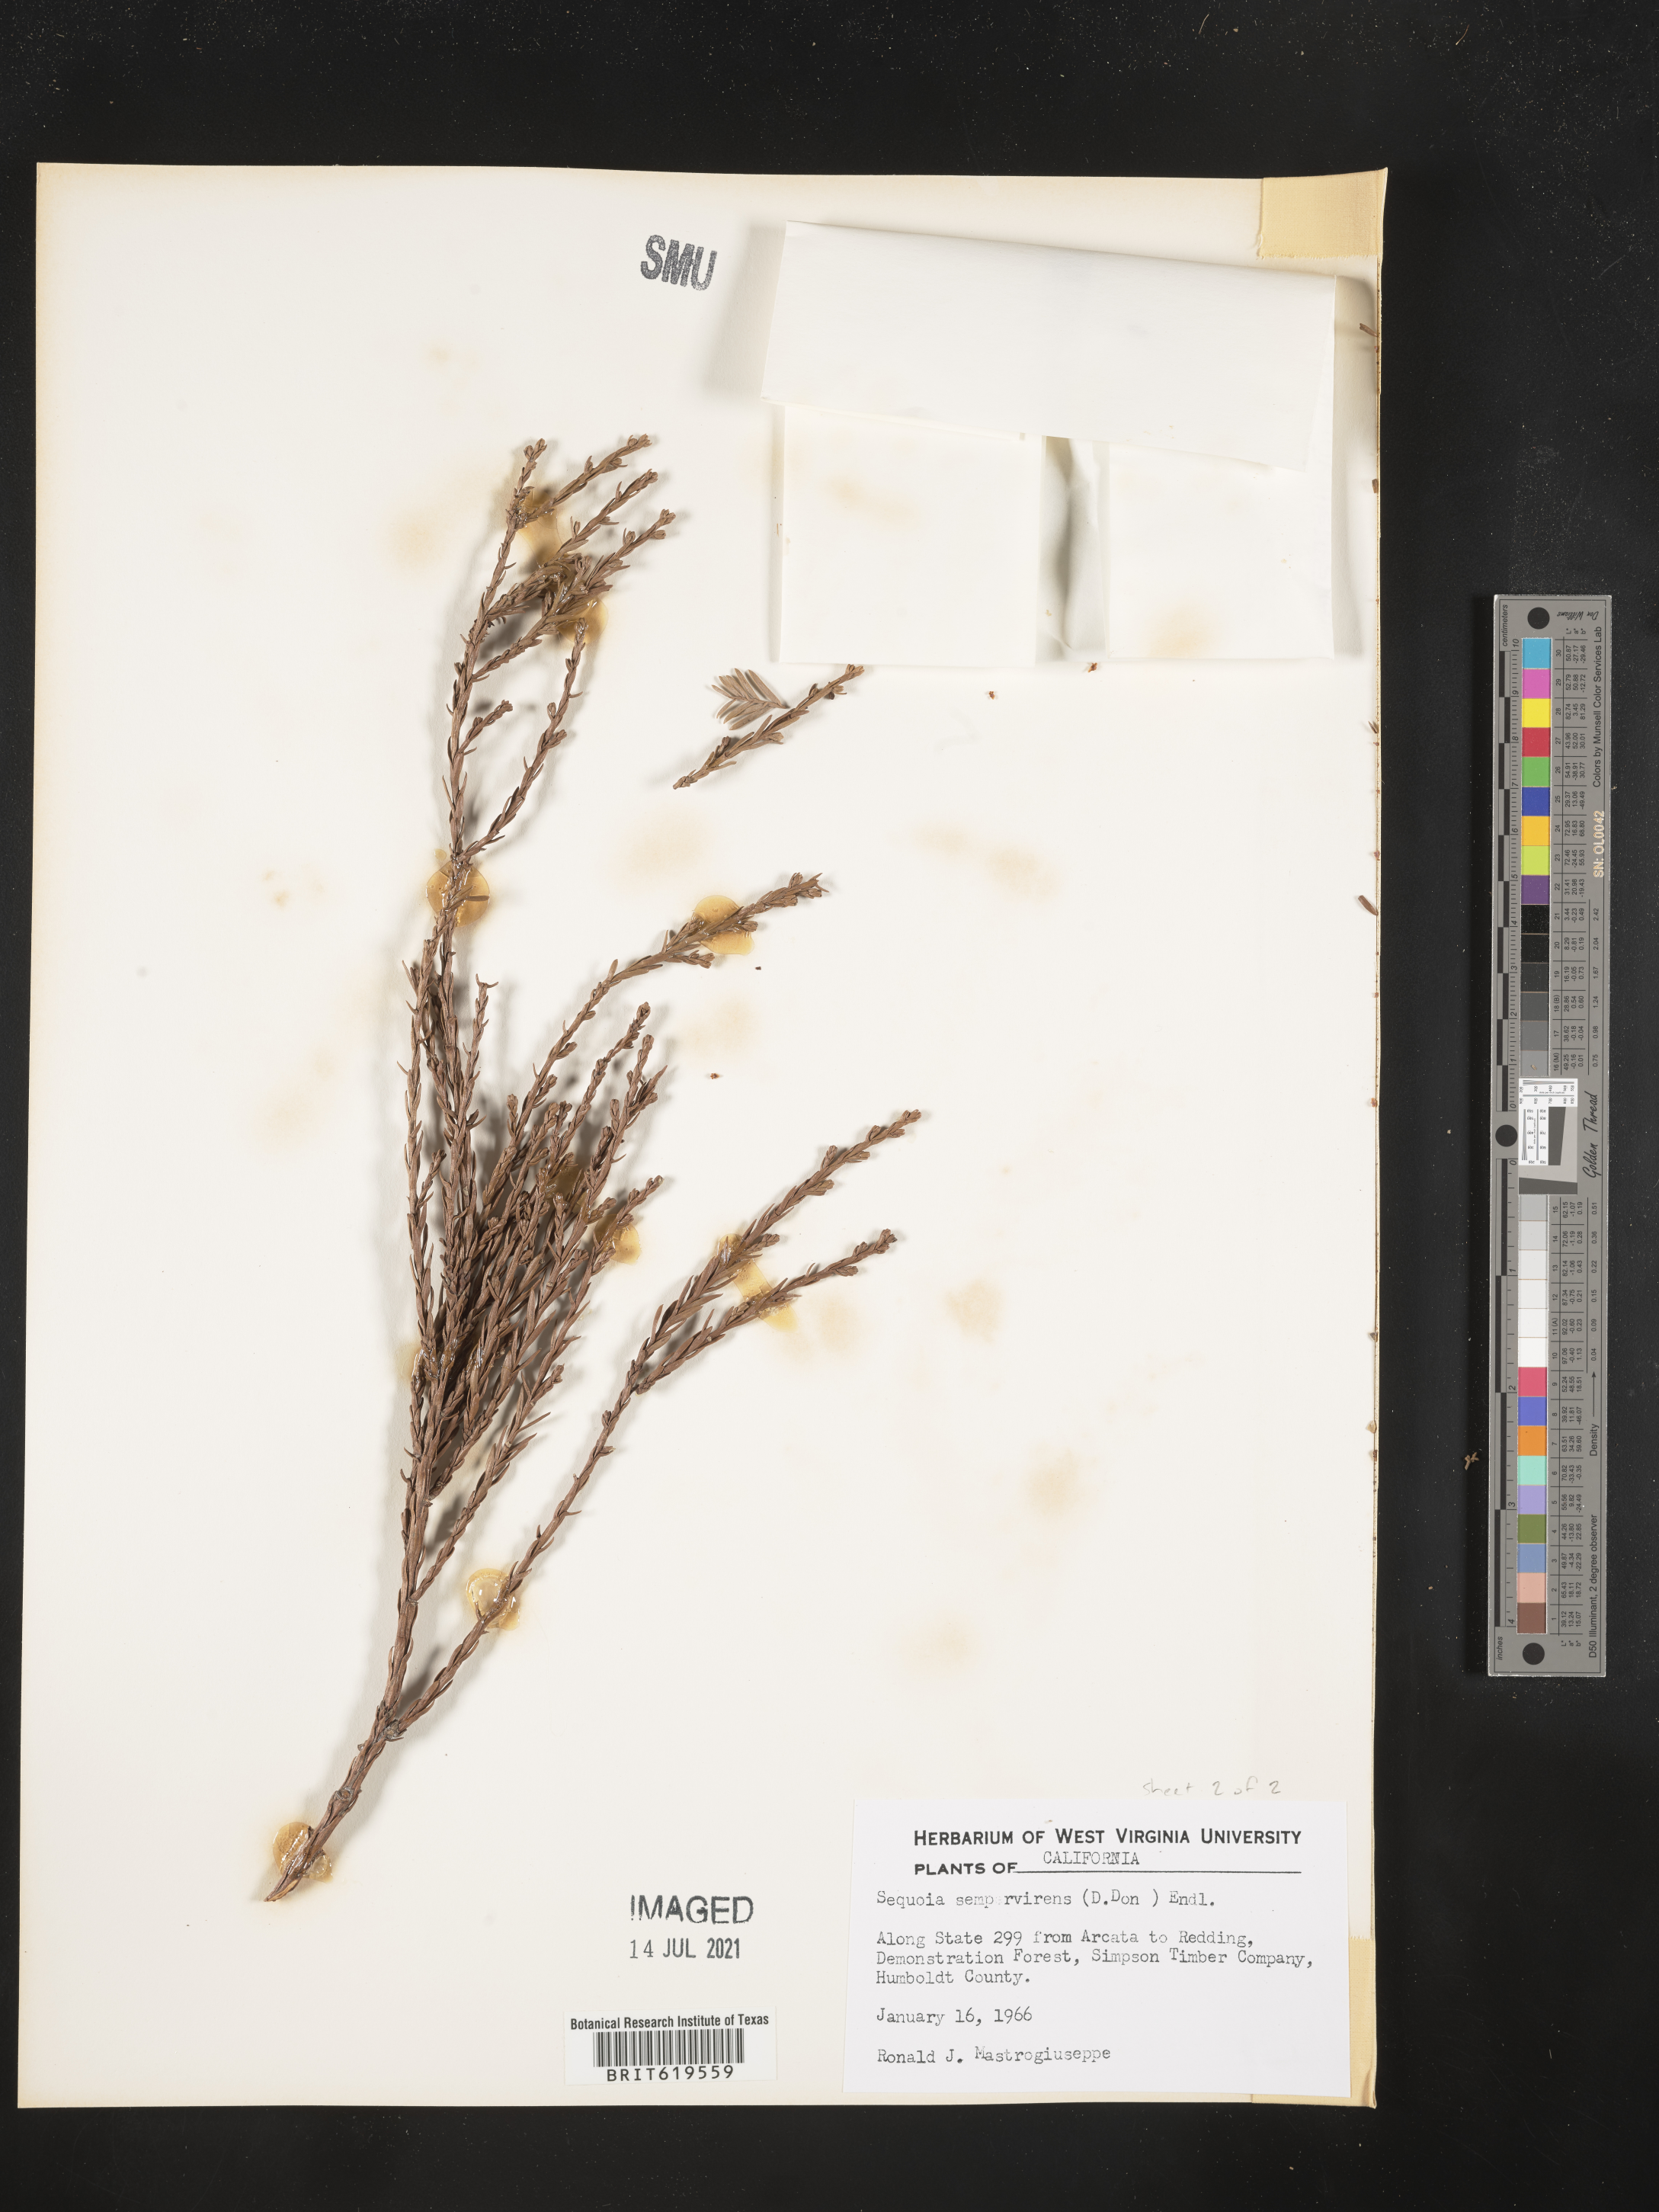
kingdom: Plantae
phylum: Tracheophyta
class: Pinopsida
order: Pinales
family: Cupressaceae
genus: Sequoia
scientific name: Sequoia sempervirens
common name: Coast redwood
